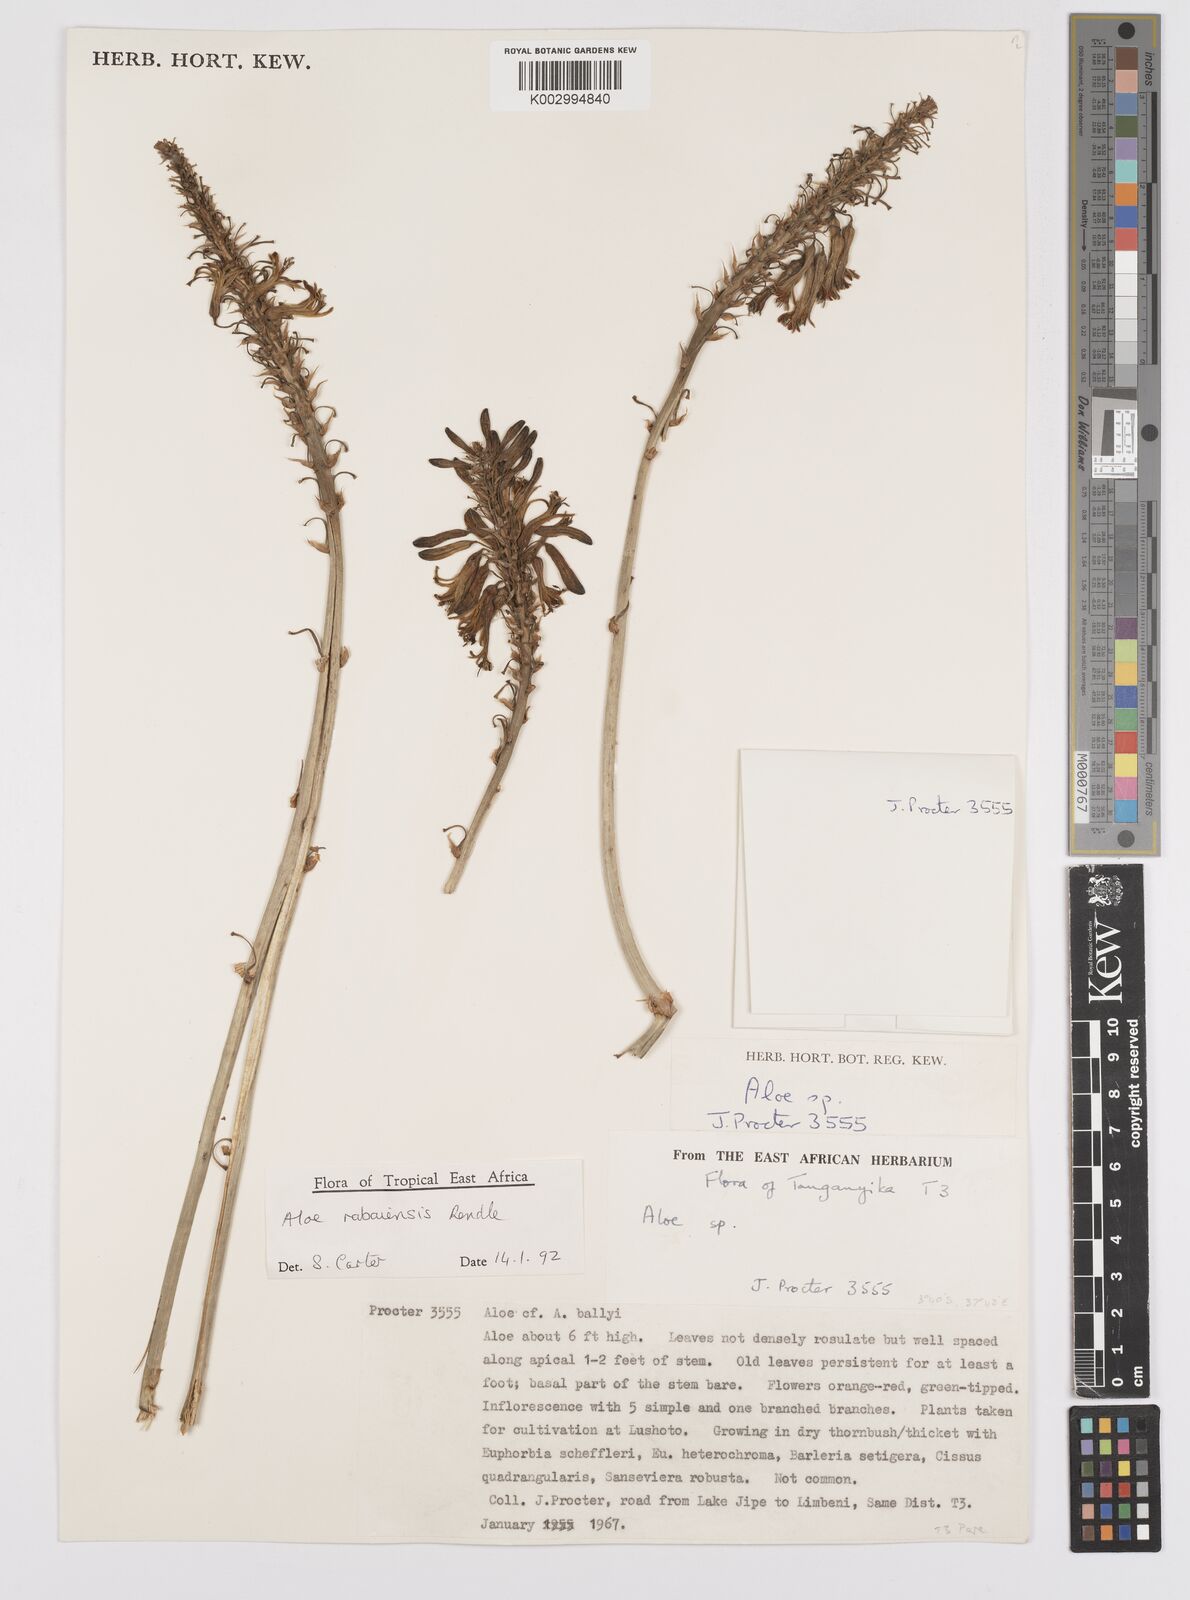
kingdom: Plantae
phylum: Tracheophyta
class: Liliopsida
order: Asparagales
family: Asphodelaceae
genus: Aloe
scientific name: Aloe rabaiensis
